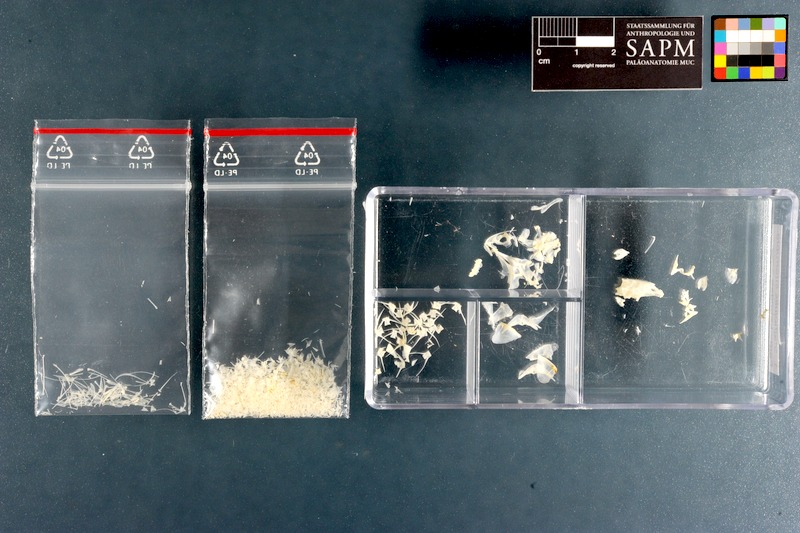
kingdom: Animalia
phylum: Chordata
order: Perciformes
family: Labridae
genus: Stethojulis
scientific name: Stethojulis interrupta
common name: Cutribbon wrasse
